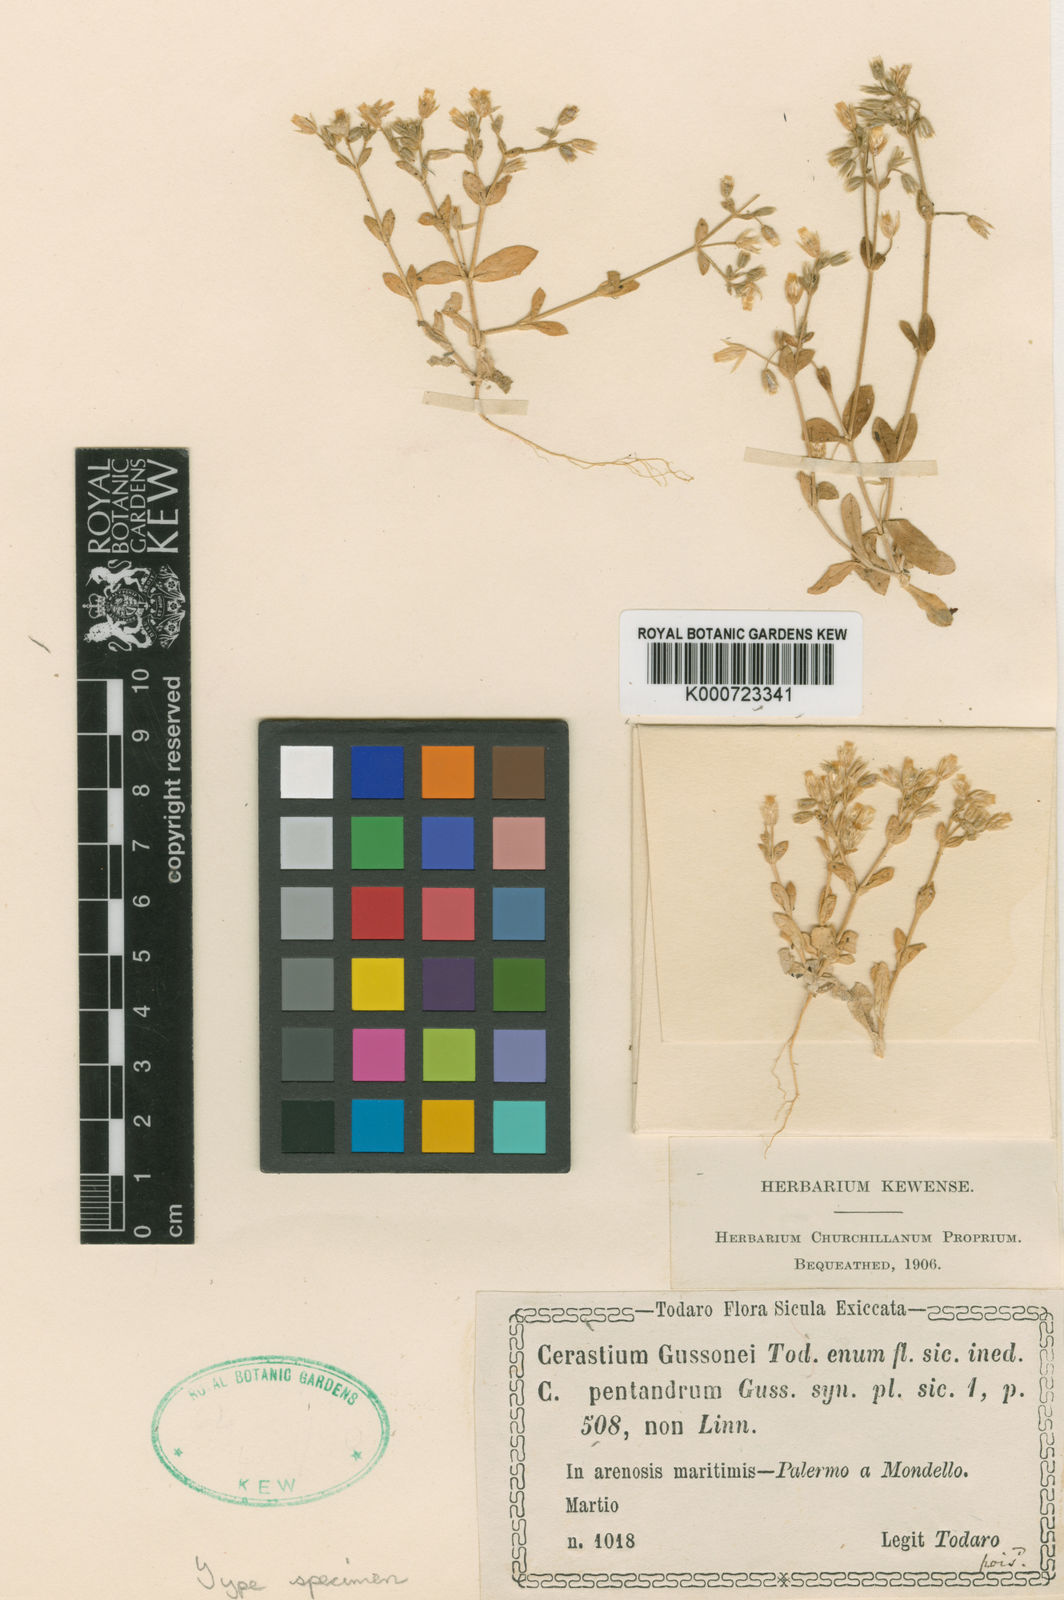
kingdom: Plantae
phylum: Tracheophyta
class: Magnoliopsida
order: Caryophyllales
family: Caryophyllaceae
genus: Cerastium
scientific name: Cerastium diffusum
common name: Fourstamen chickweed
